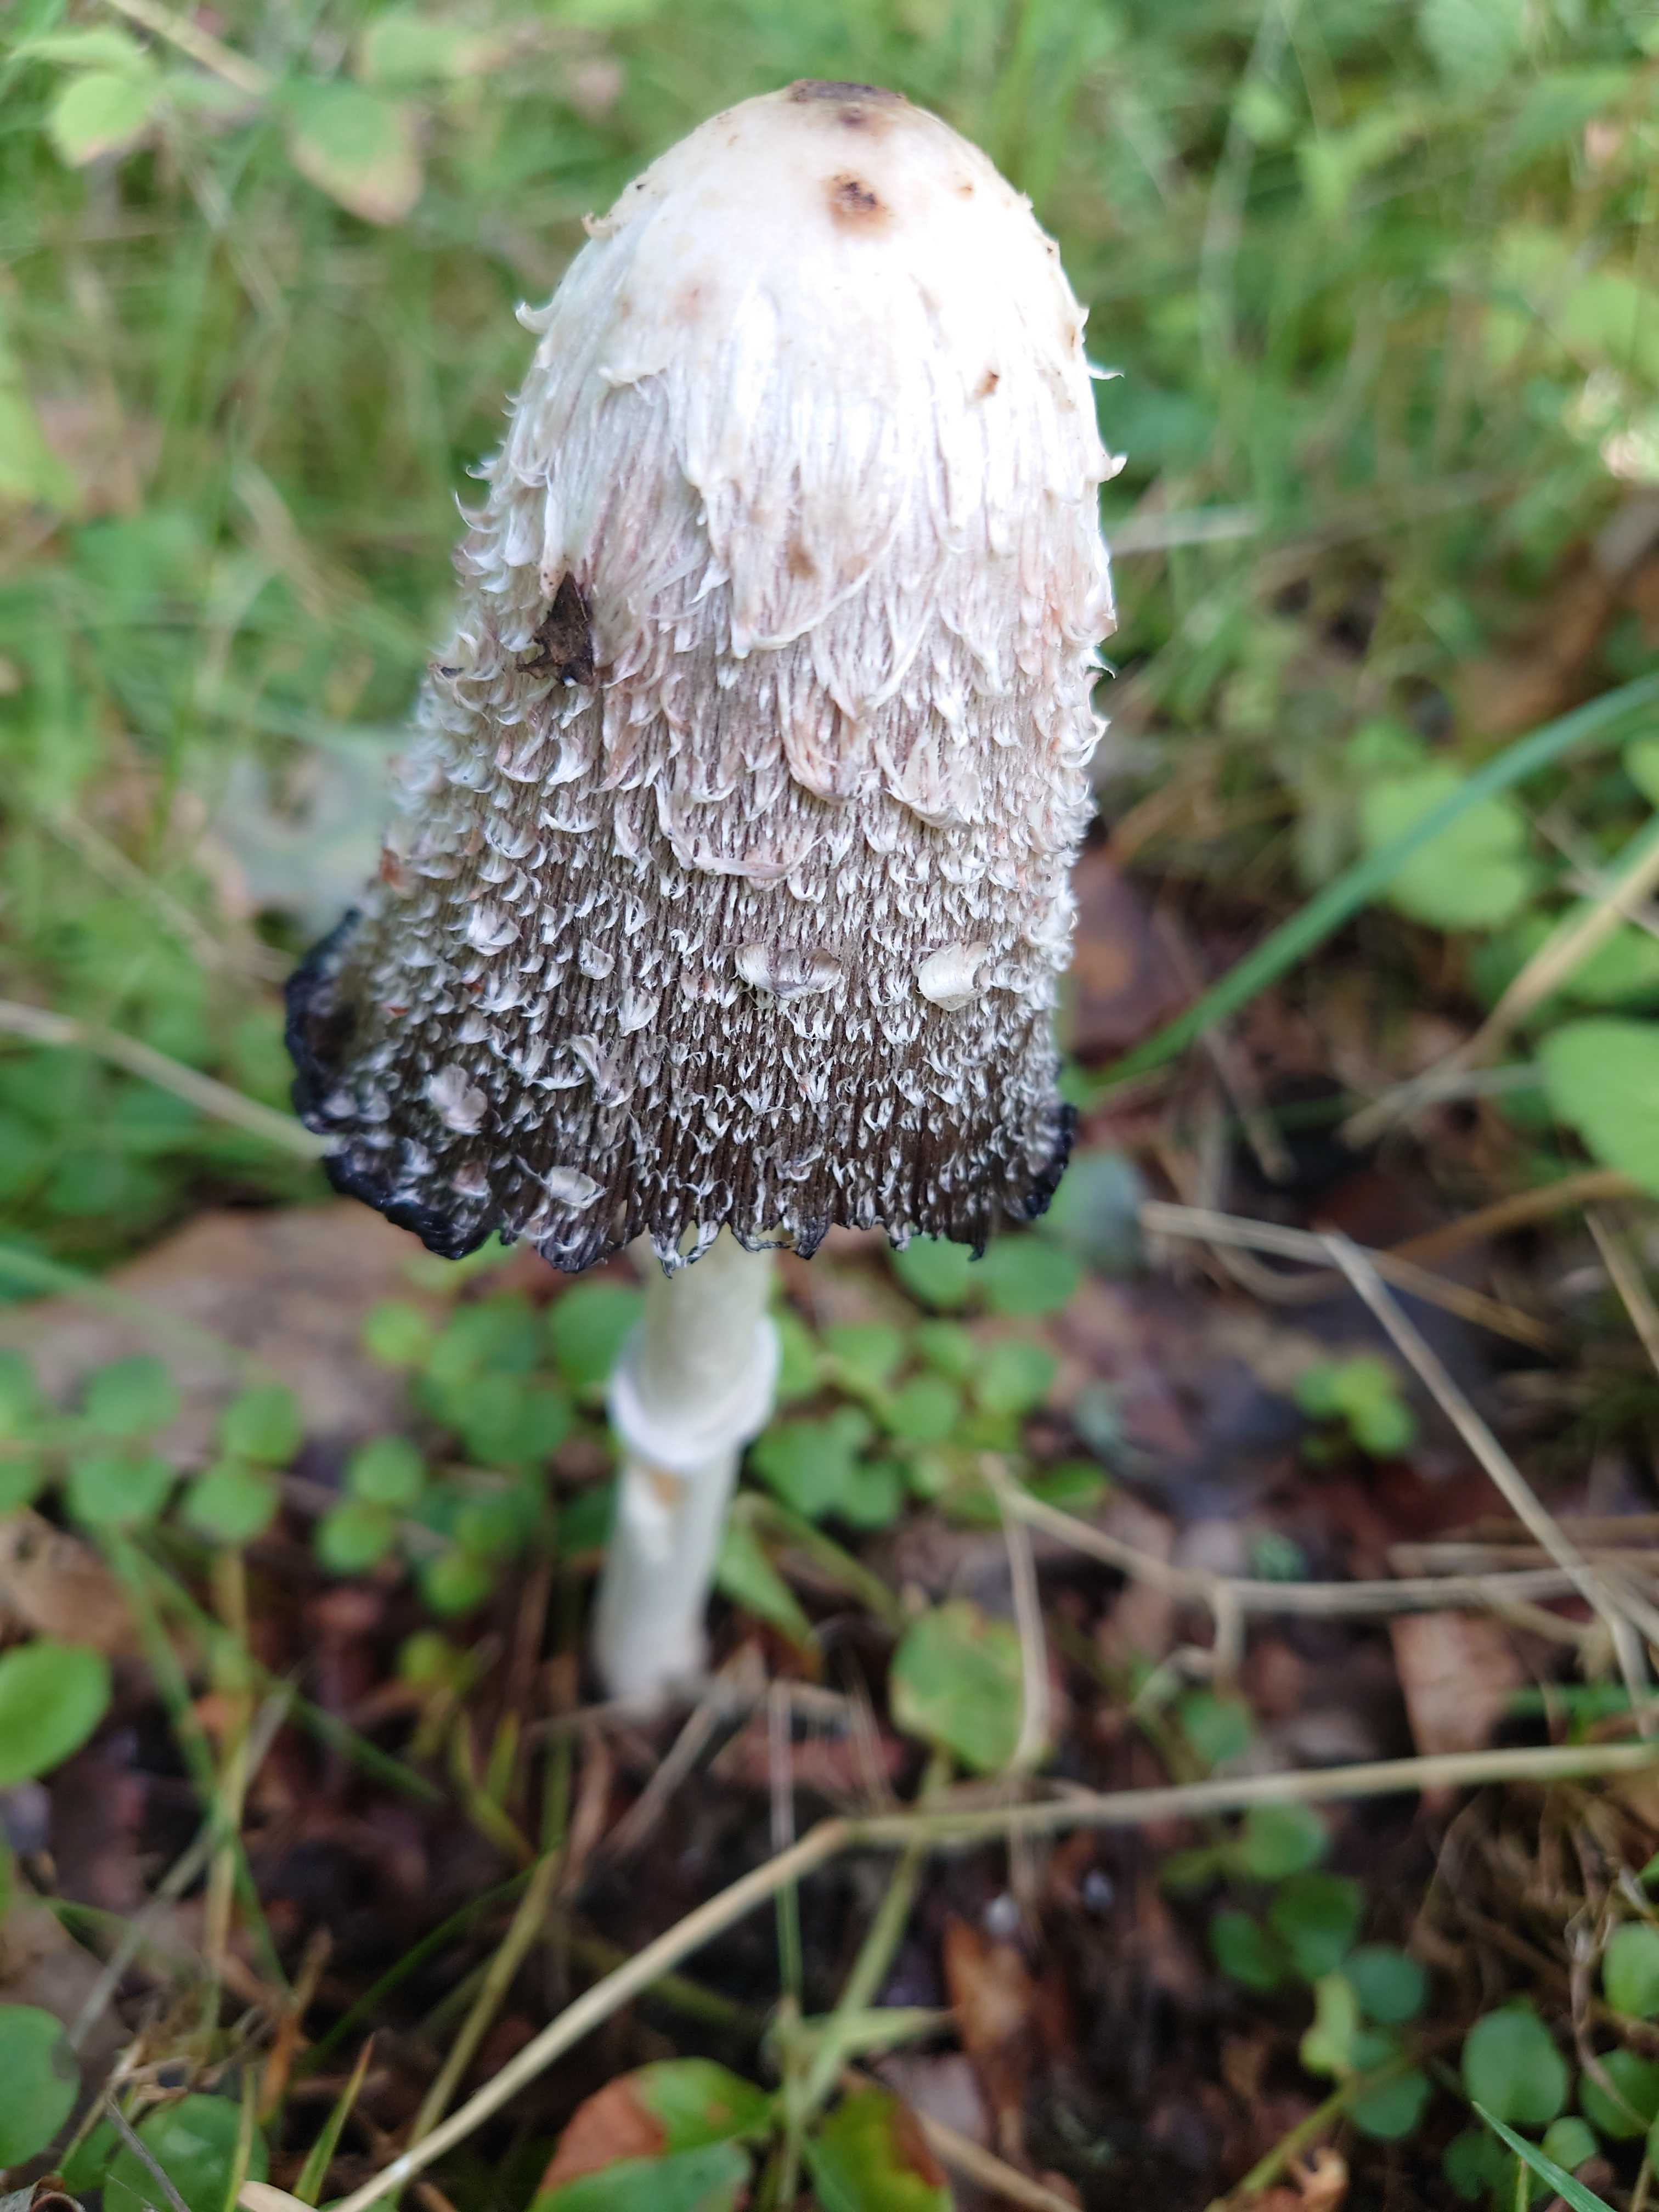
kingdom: Fungi
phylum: Basidiomycota
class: Agaricomycetes
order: Agaricales
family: Agaricaceae
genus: Coprinus
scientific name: Coprinus comatus
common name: stor parykhat
